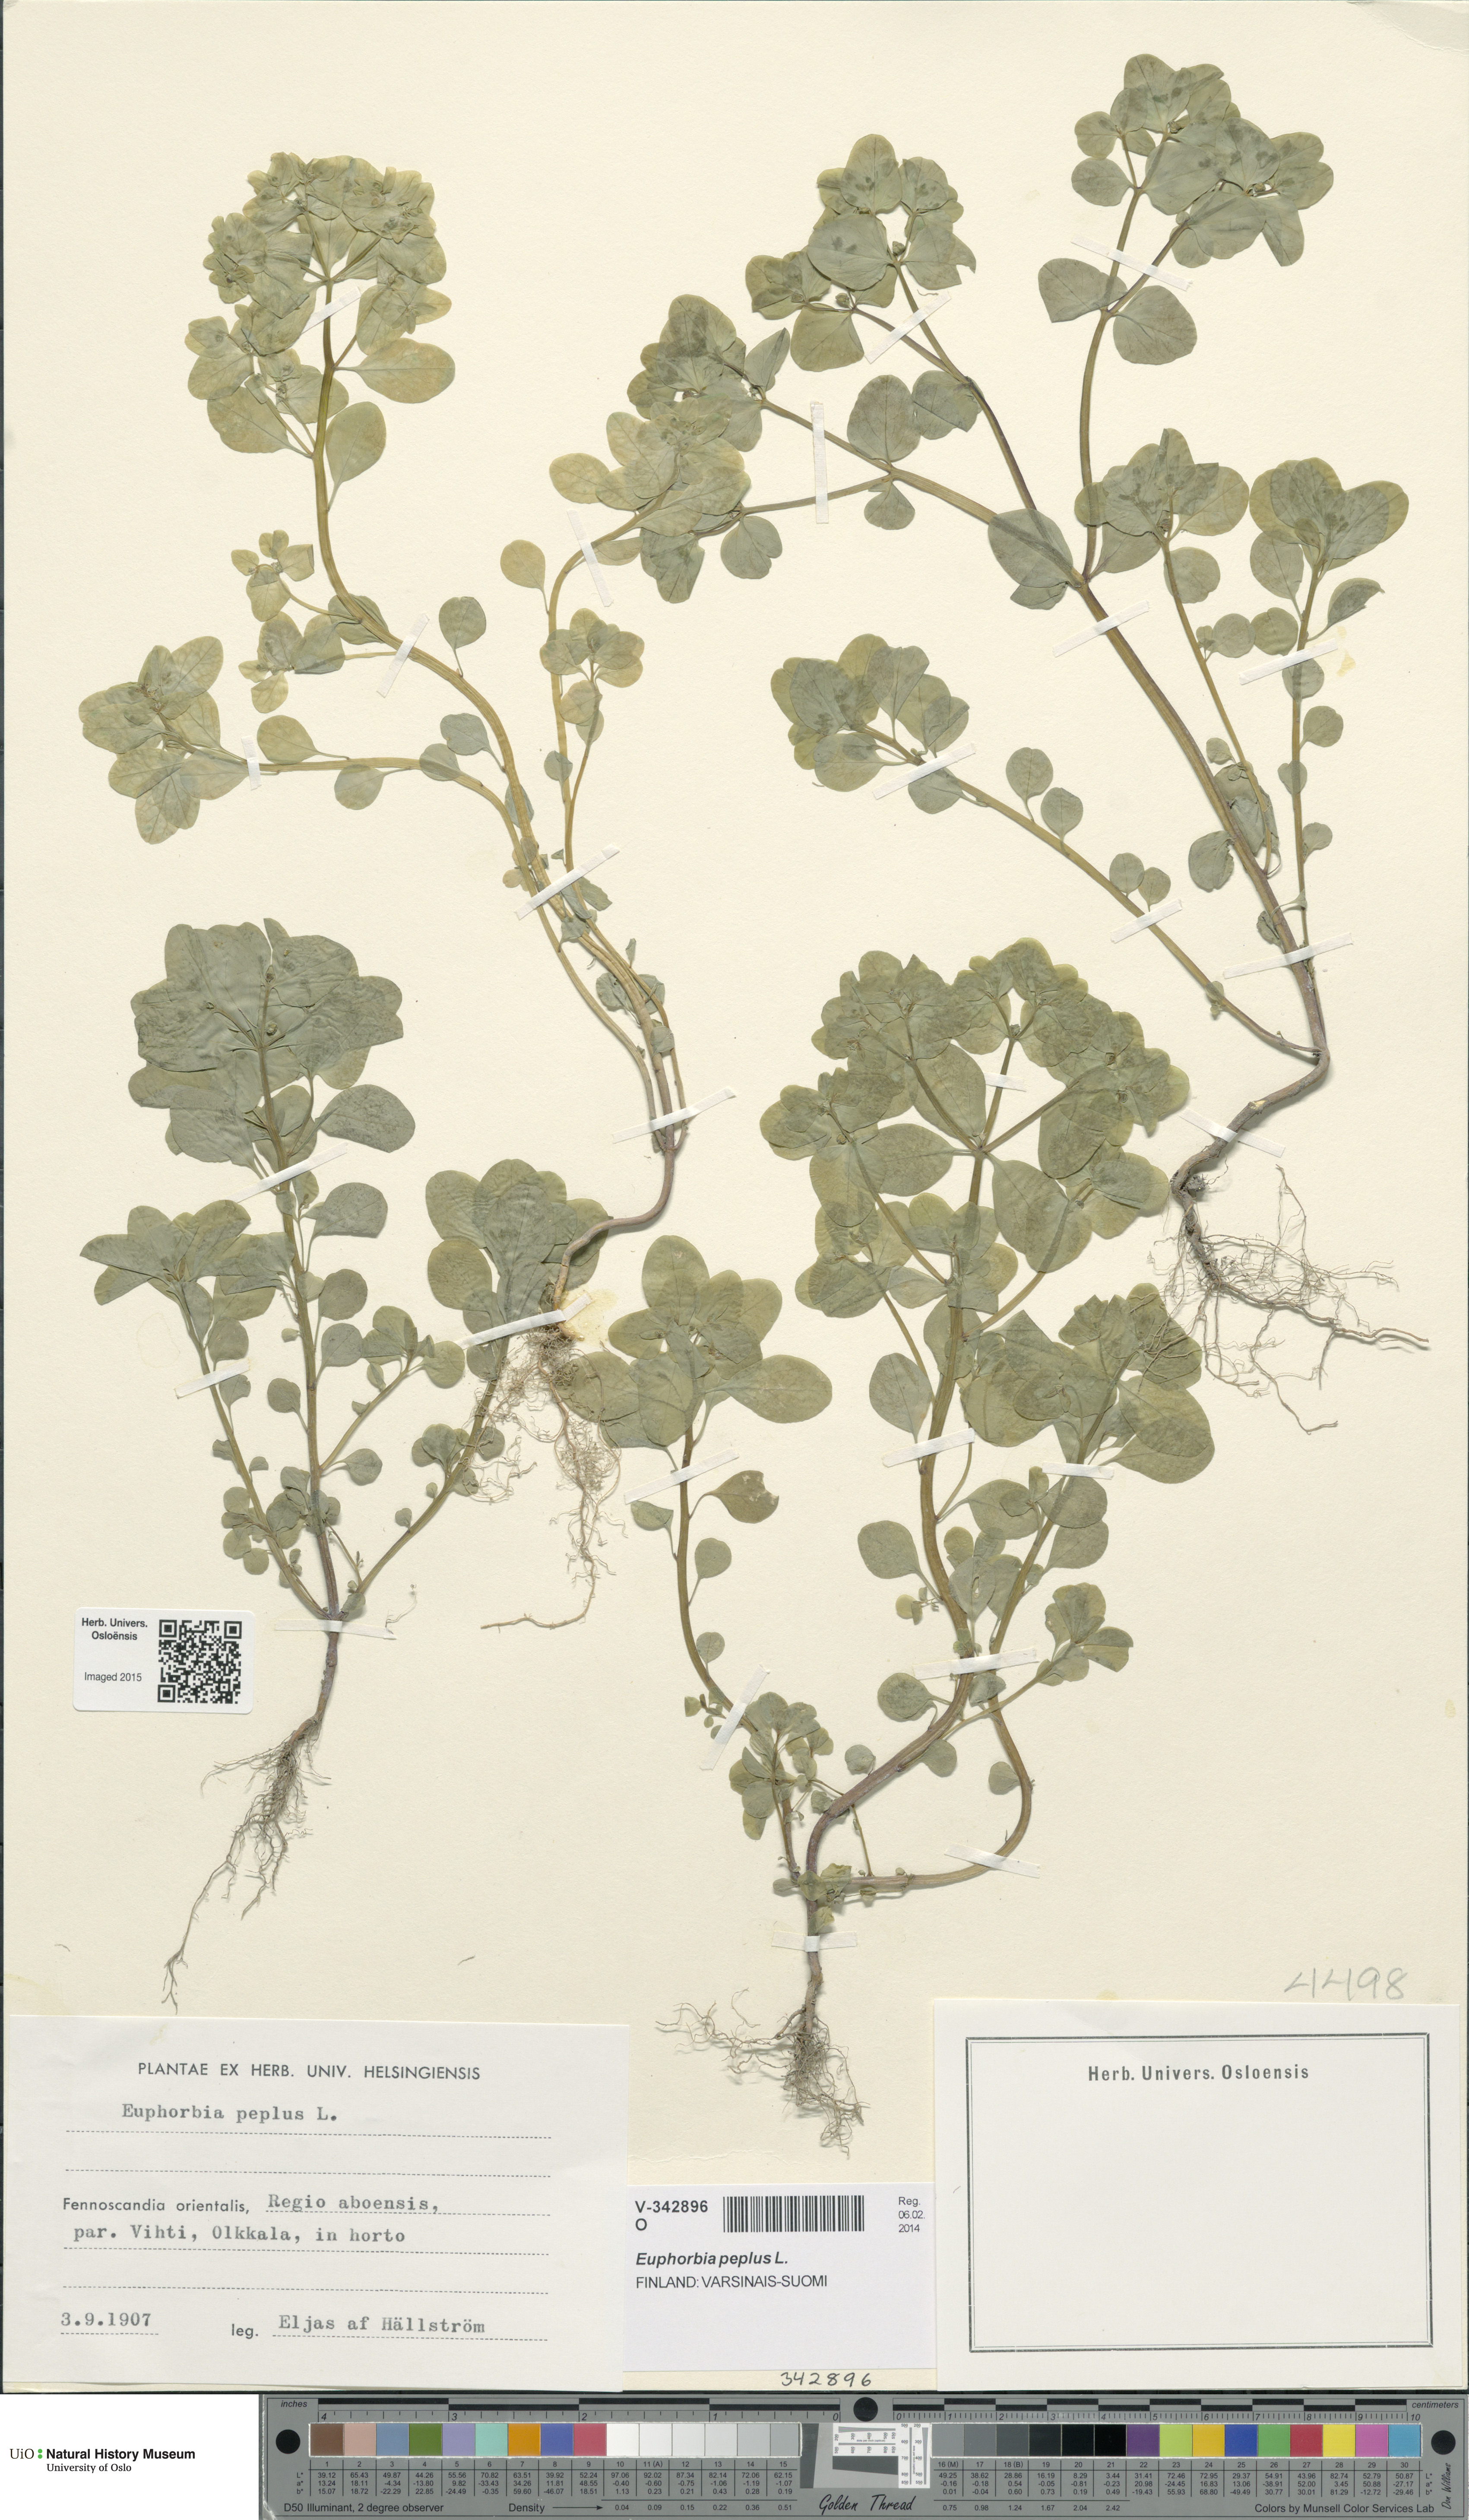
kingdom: Plantae
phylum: Tracheophyta
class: Magnoliopsida
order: Malpighiales
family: Euphorbiaceae
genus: Euphorbia
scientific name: Euphorbia peplus
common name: Petty spurge
